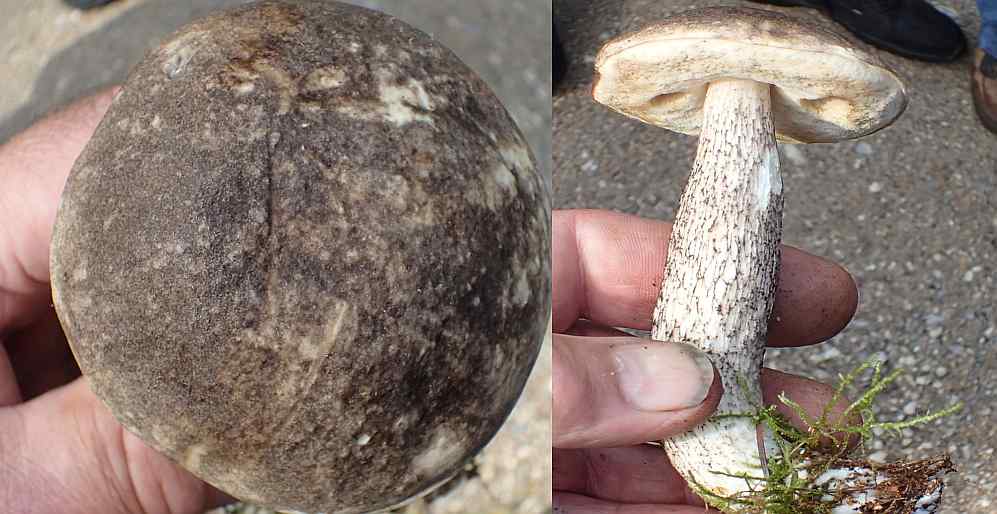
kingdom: Fungi
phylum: Basidiomycota
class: Agaricomycetes
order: Boletales
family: Boletaceae
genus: Leccinum
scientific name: Leccinum variicolor
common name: flammet skælrørhat
